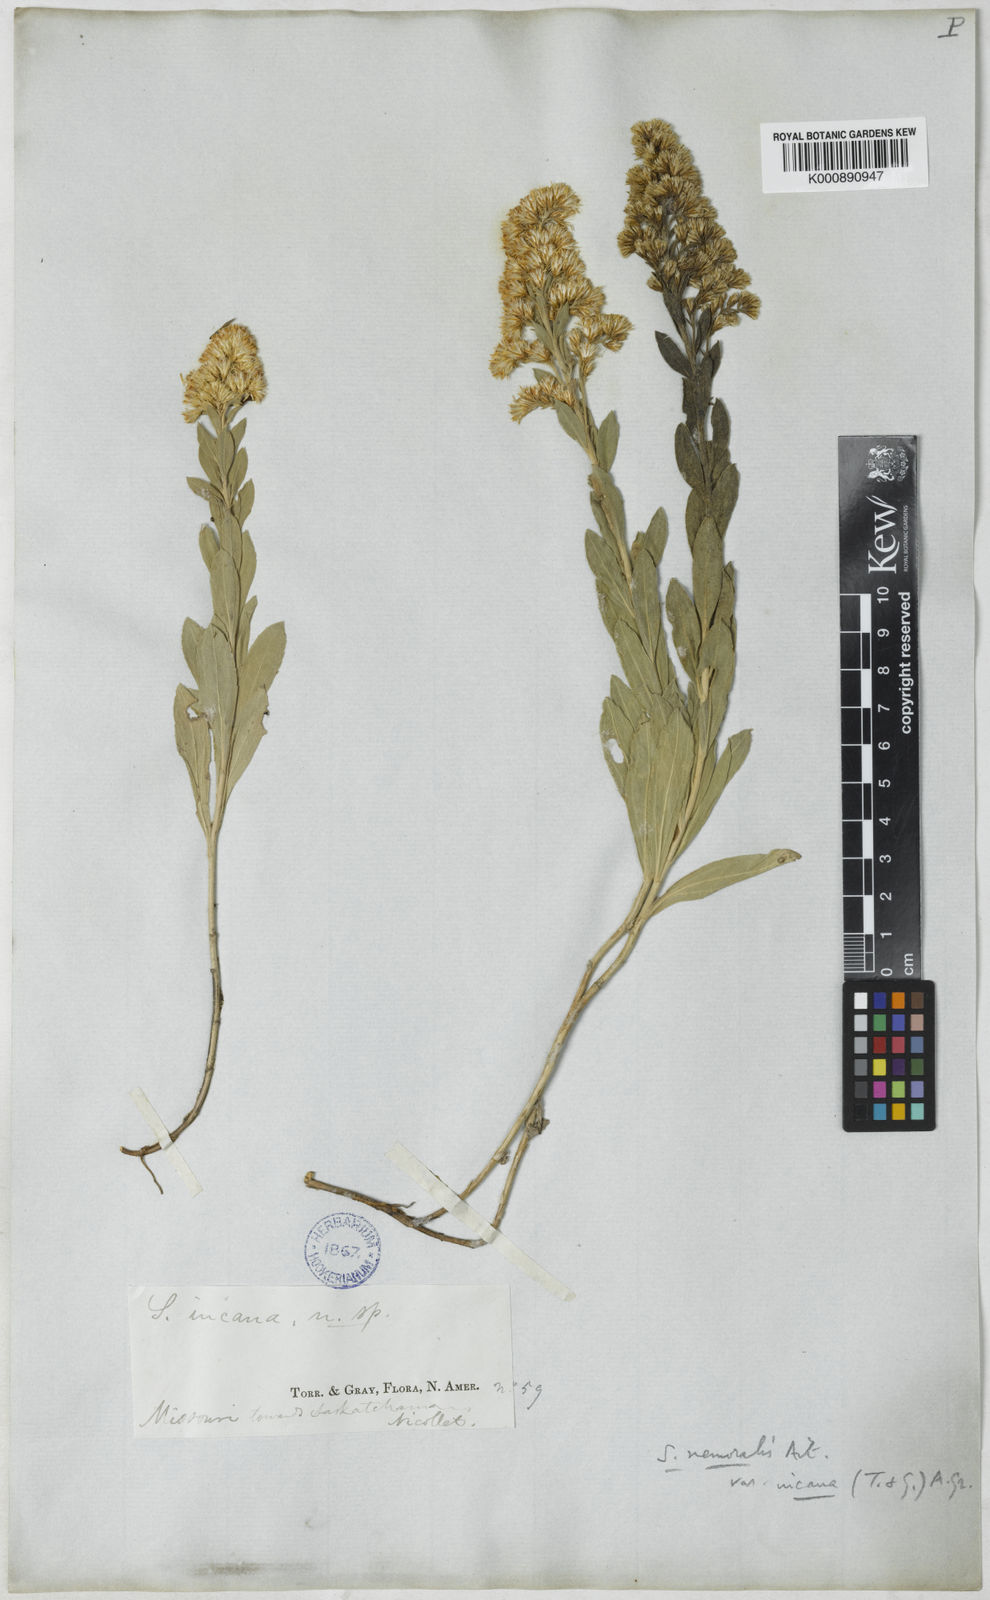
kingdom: Plantae
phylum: Tracheophyta
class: Magnoliopsida
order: Asterales
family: Asteraceae
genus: Solidago
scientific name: Solidago mollis
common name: Ashly goldenrod
